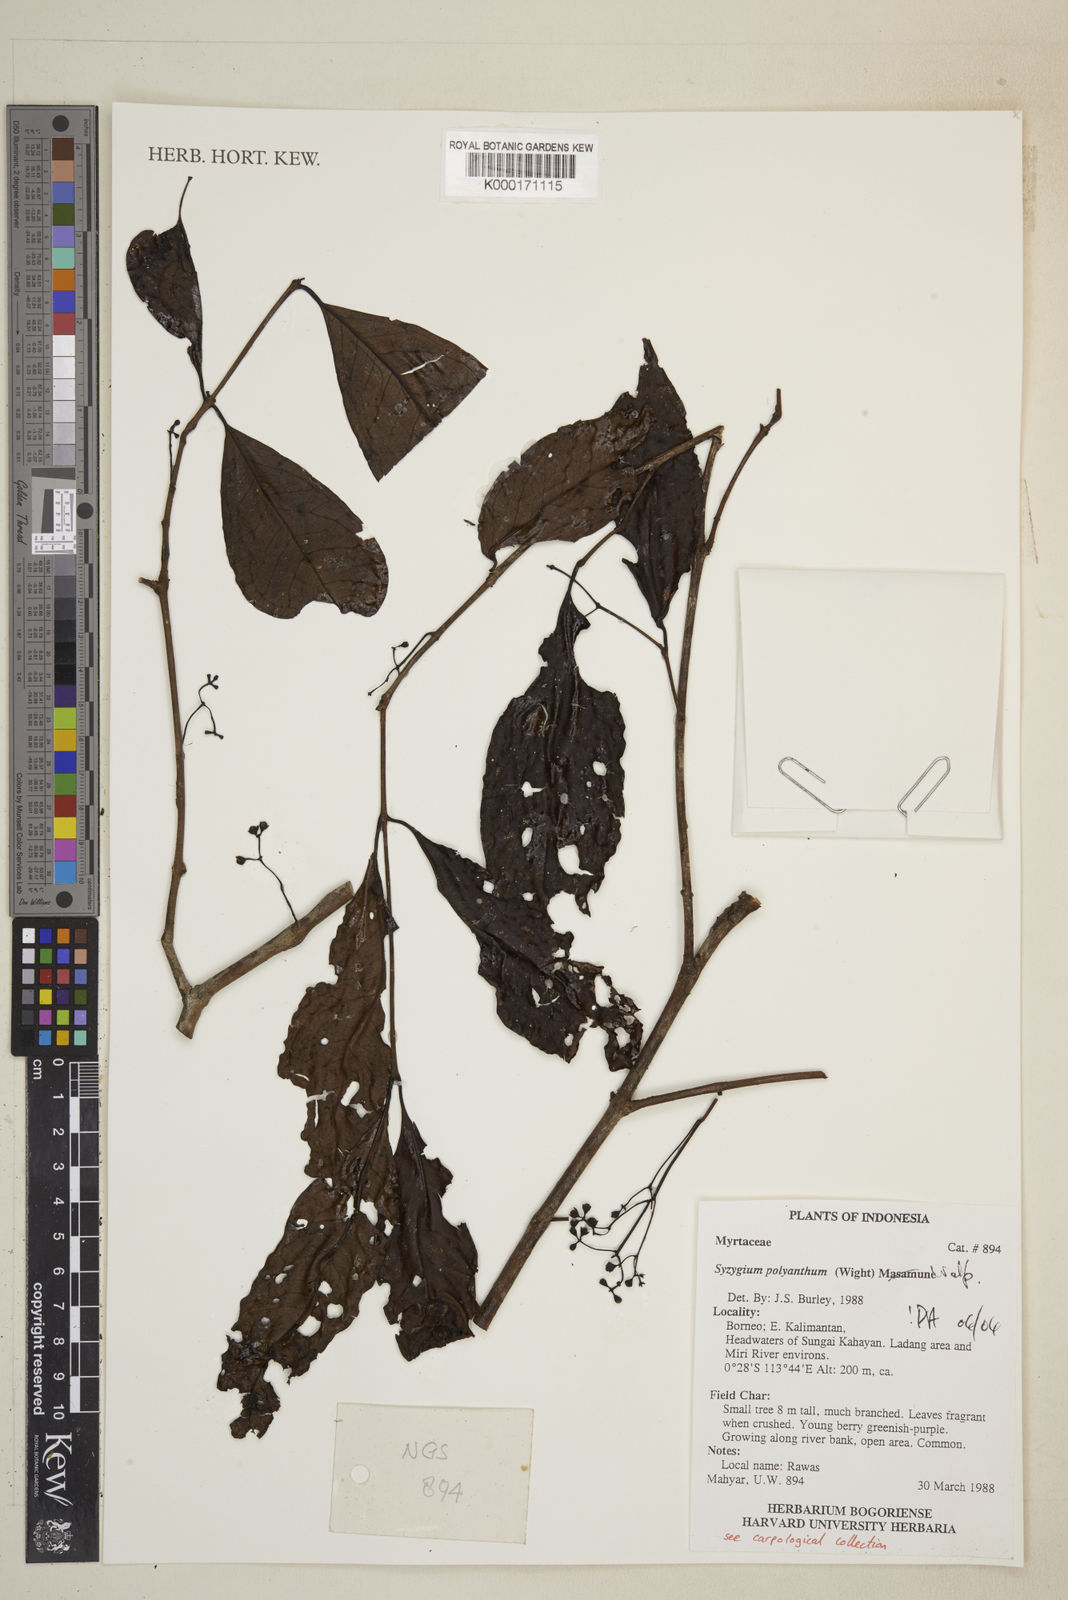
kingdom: Plantae
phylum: Tracheophyta
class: Magnoliopsida
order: Myrtales
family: Myrtaceae
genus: Syzygium
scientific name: Syzygium polyanthum
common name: Indonesian bayleaf
